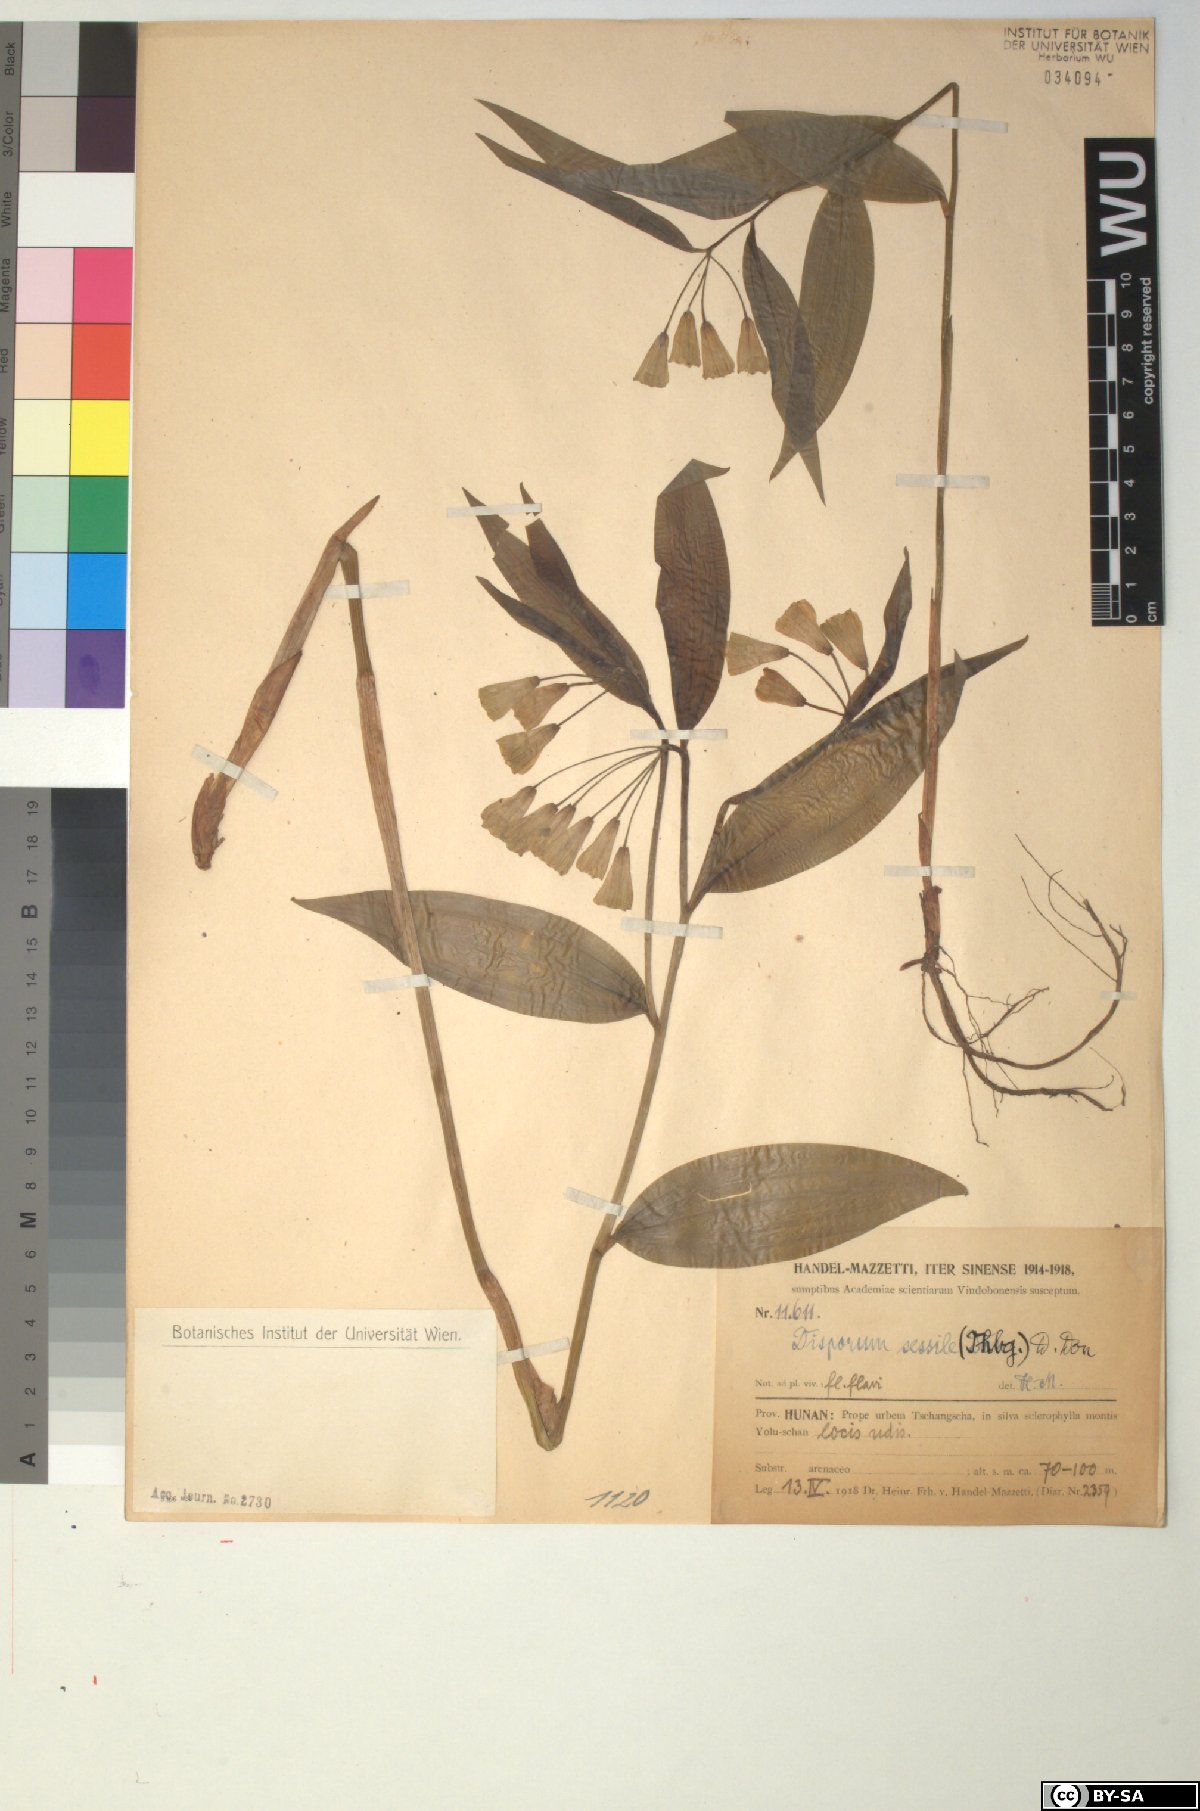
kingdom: Plantae
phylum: Tracheophyta
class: Liliopsida
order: Liliales
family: Colchicaceae
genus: Disporum
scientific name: Disporum sessile
